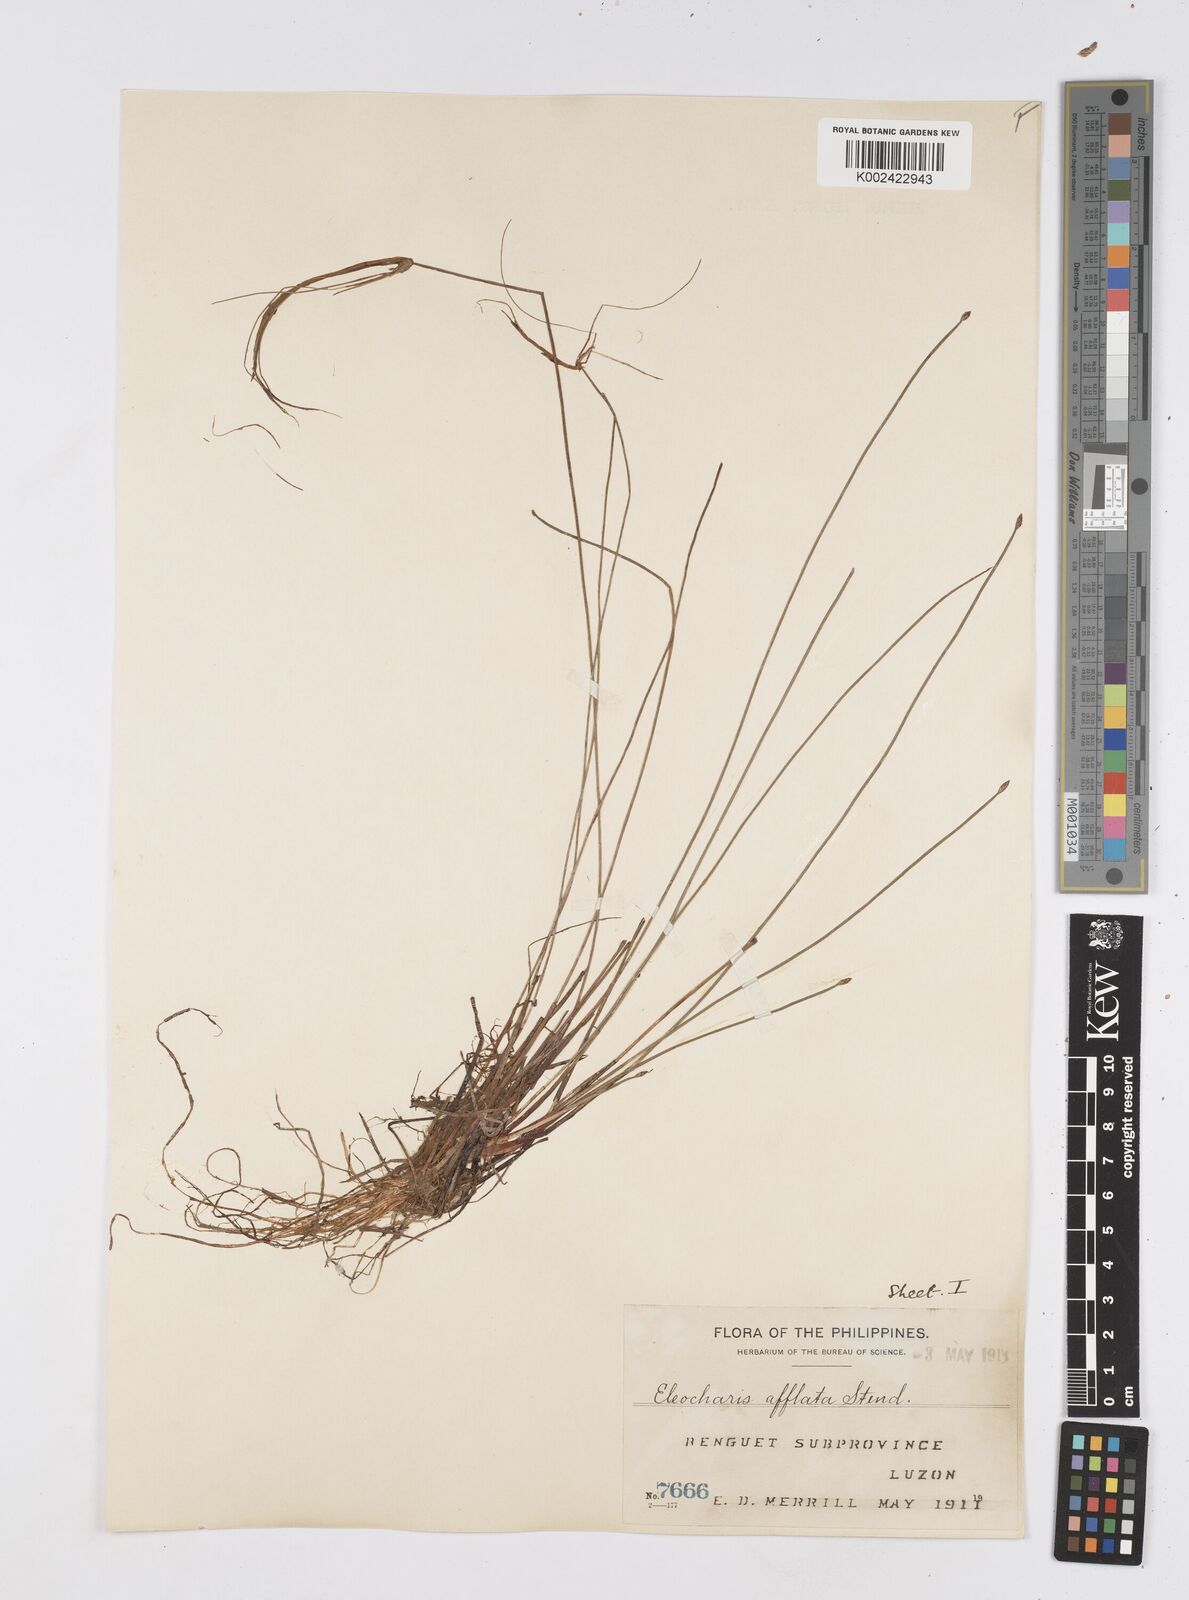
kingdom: Plantae
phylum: Tracheophyta
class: Liliopsida
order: Poales
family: Cyperaceae
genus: Eleocharis
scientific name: Eleocharis congesta
